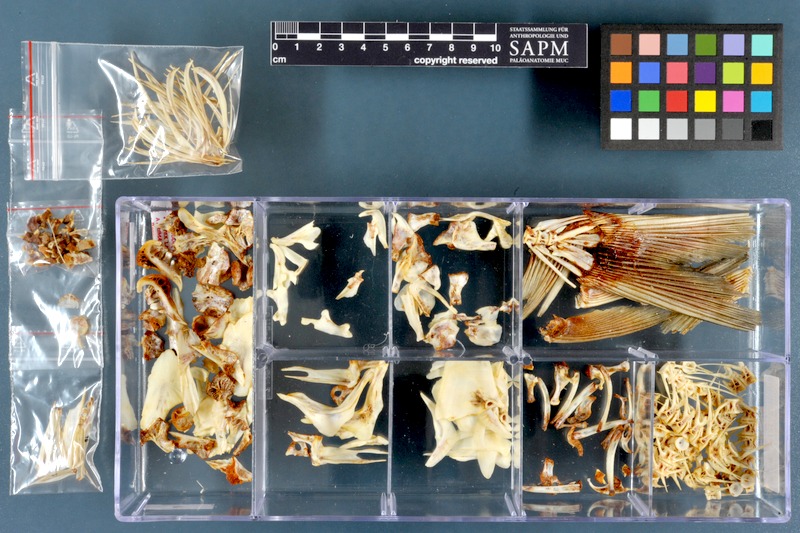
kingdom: Animalia
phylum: Chordata
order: Cypriniformes
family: Cyprinidae
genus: Arabibarbus
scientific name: Arabibarbus grypus
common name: Shabout
